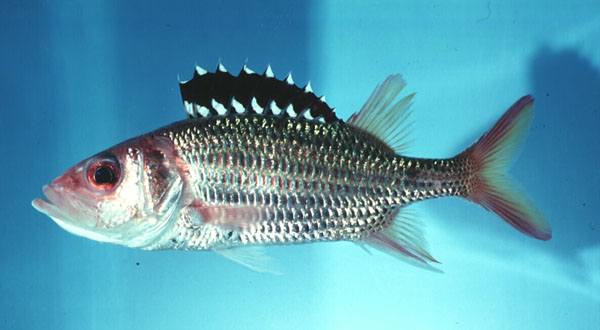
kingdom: Animalia
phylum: Chordata
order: Beryciformes
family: Holocentridae
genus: Neoniphon
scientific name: Neoniphon opercularis
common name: Blackfin squirrelfish
